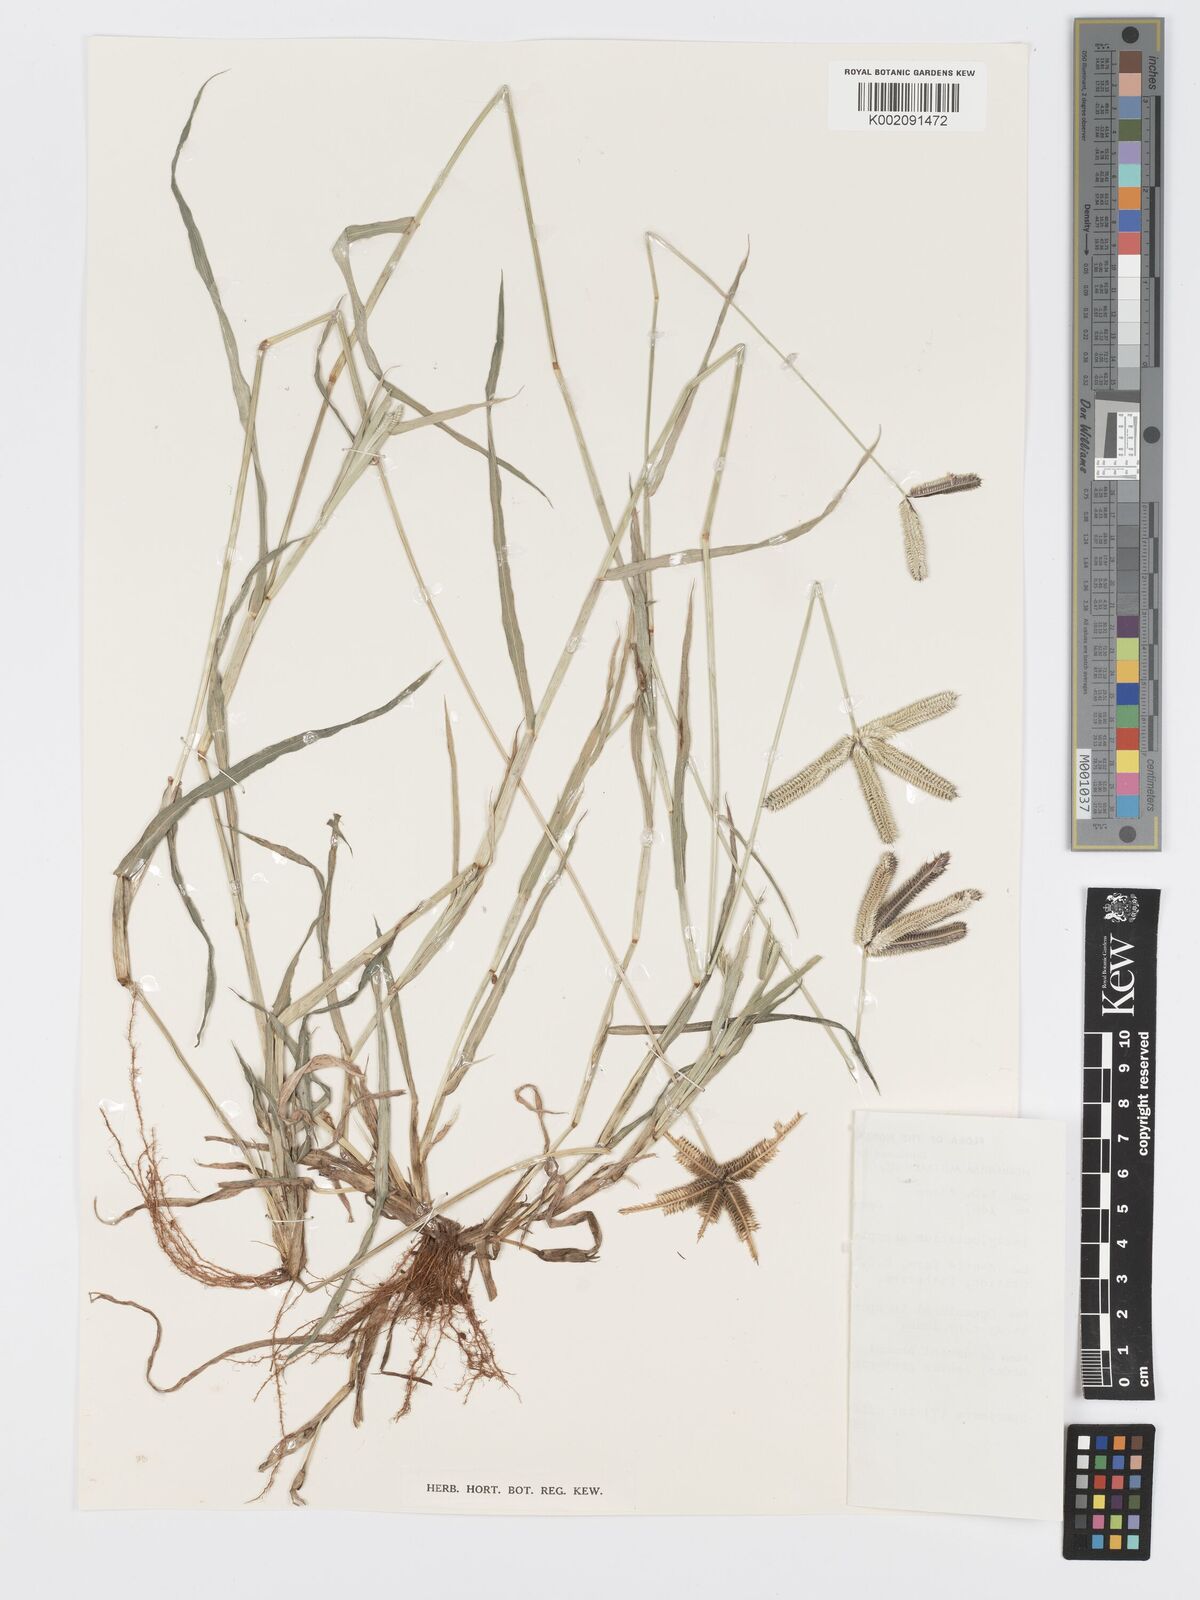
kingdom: Plantae
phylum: Tracheophyta
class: Liliopsida
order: Poales
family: Poaceae
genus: Dactyloctenium
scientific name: Dactyloctenium aegyptium
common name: Egyptian grass
